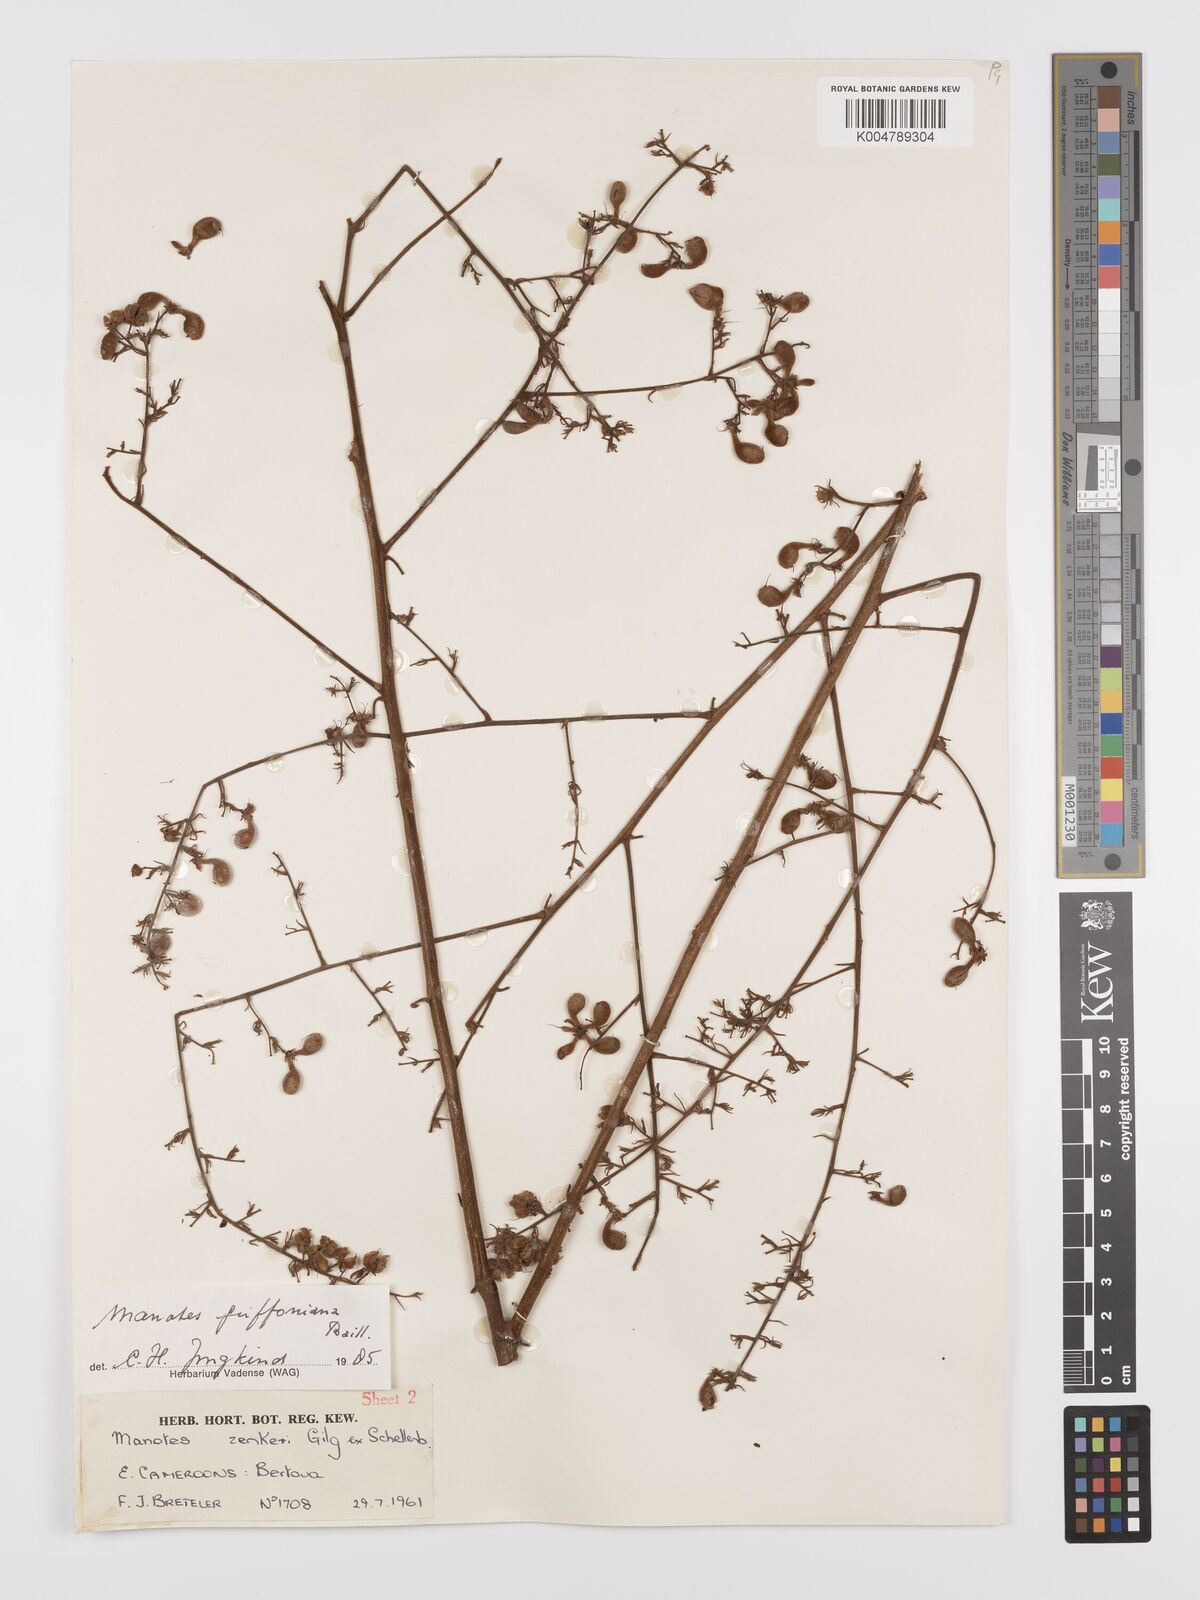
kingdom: Plantae
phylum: Tracheophyta
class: Magnoliopsida
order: Oxalidales
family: Connaraceae
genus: Manotes
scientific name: Manotes griffoniana
